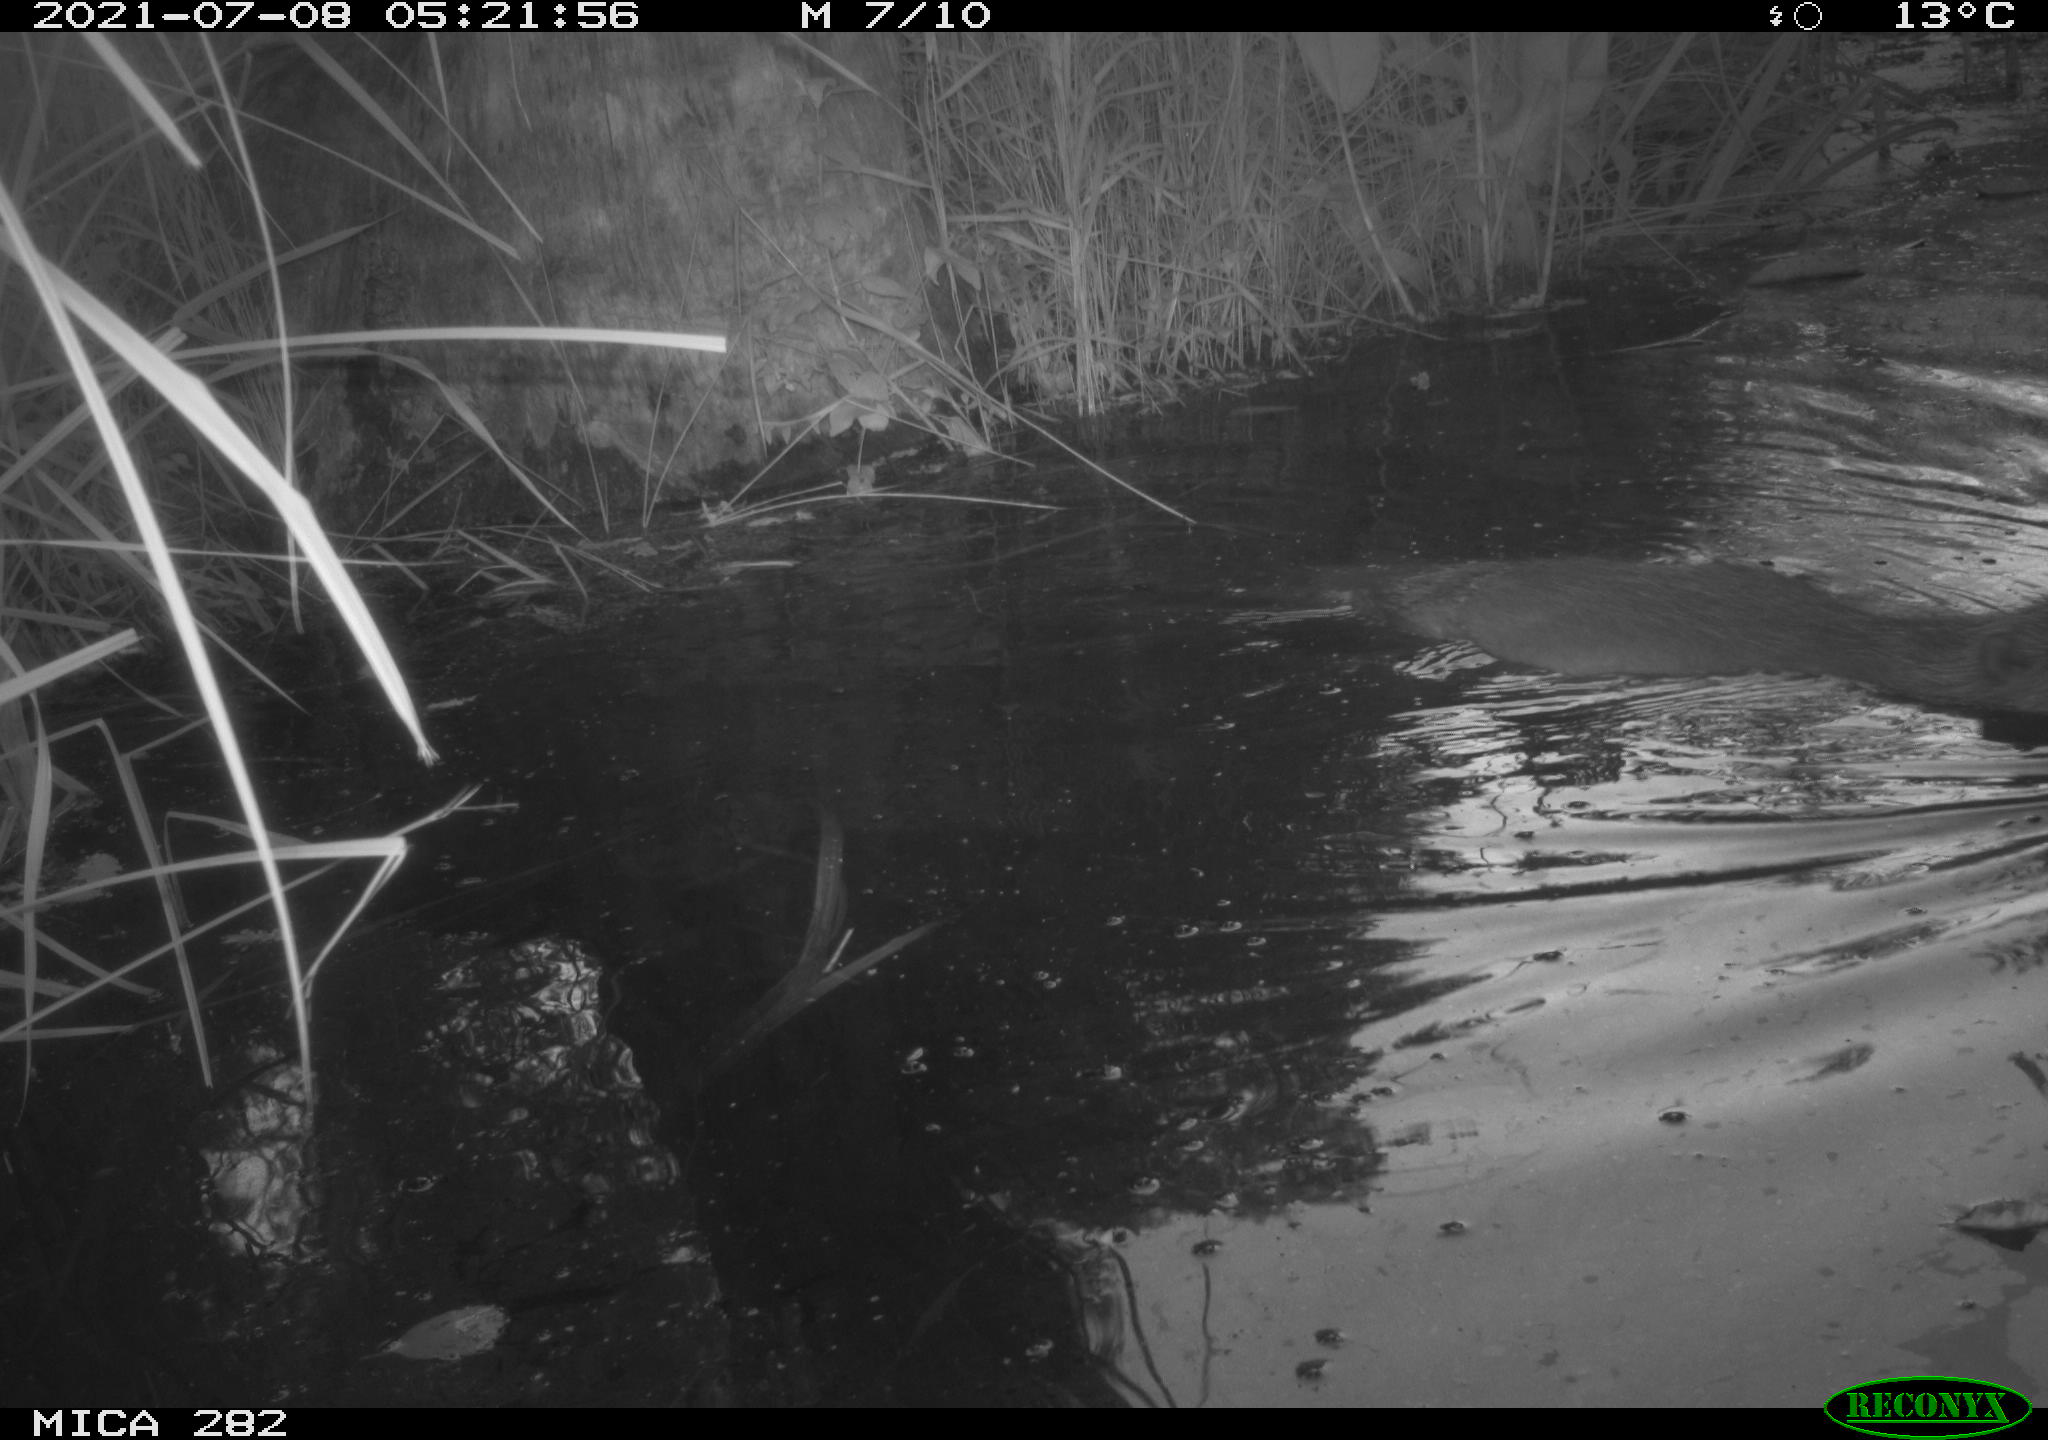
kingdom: Animalia
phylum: Chordata
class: Mammalia
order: Rodentia
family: Castoridae
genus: Castor
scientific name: Castor fiber
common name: Eurasian beaver
